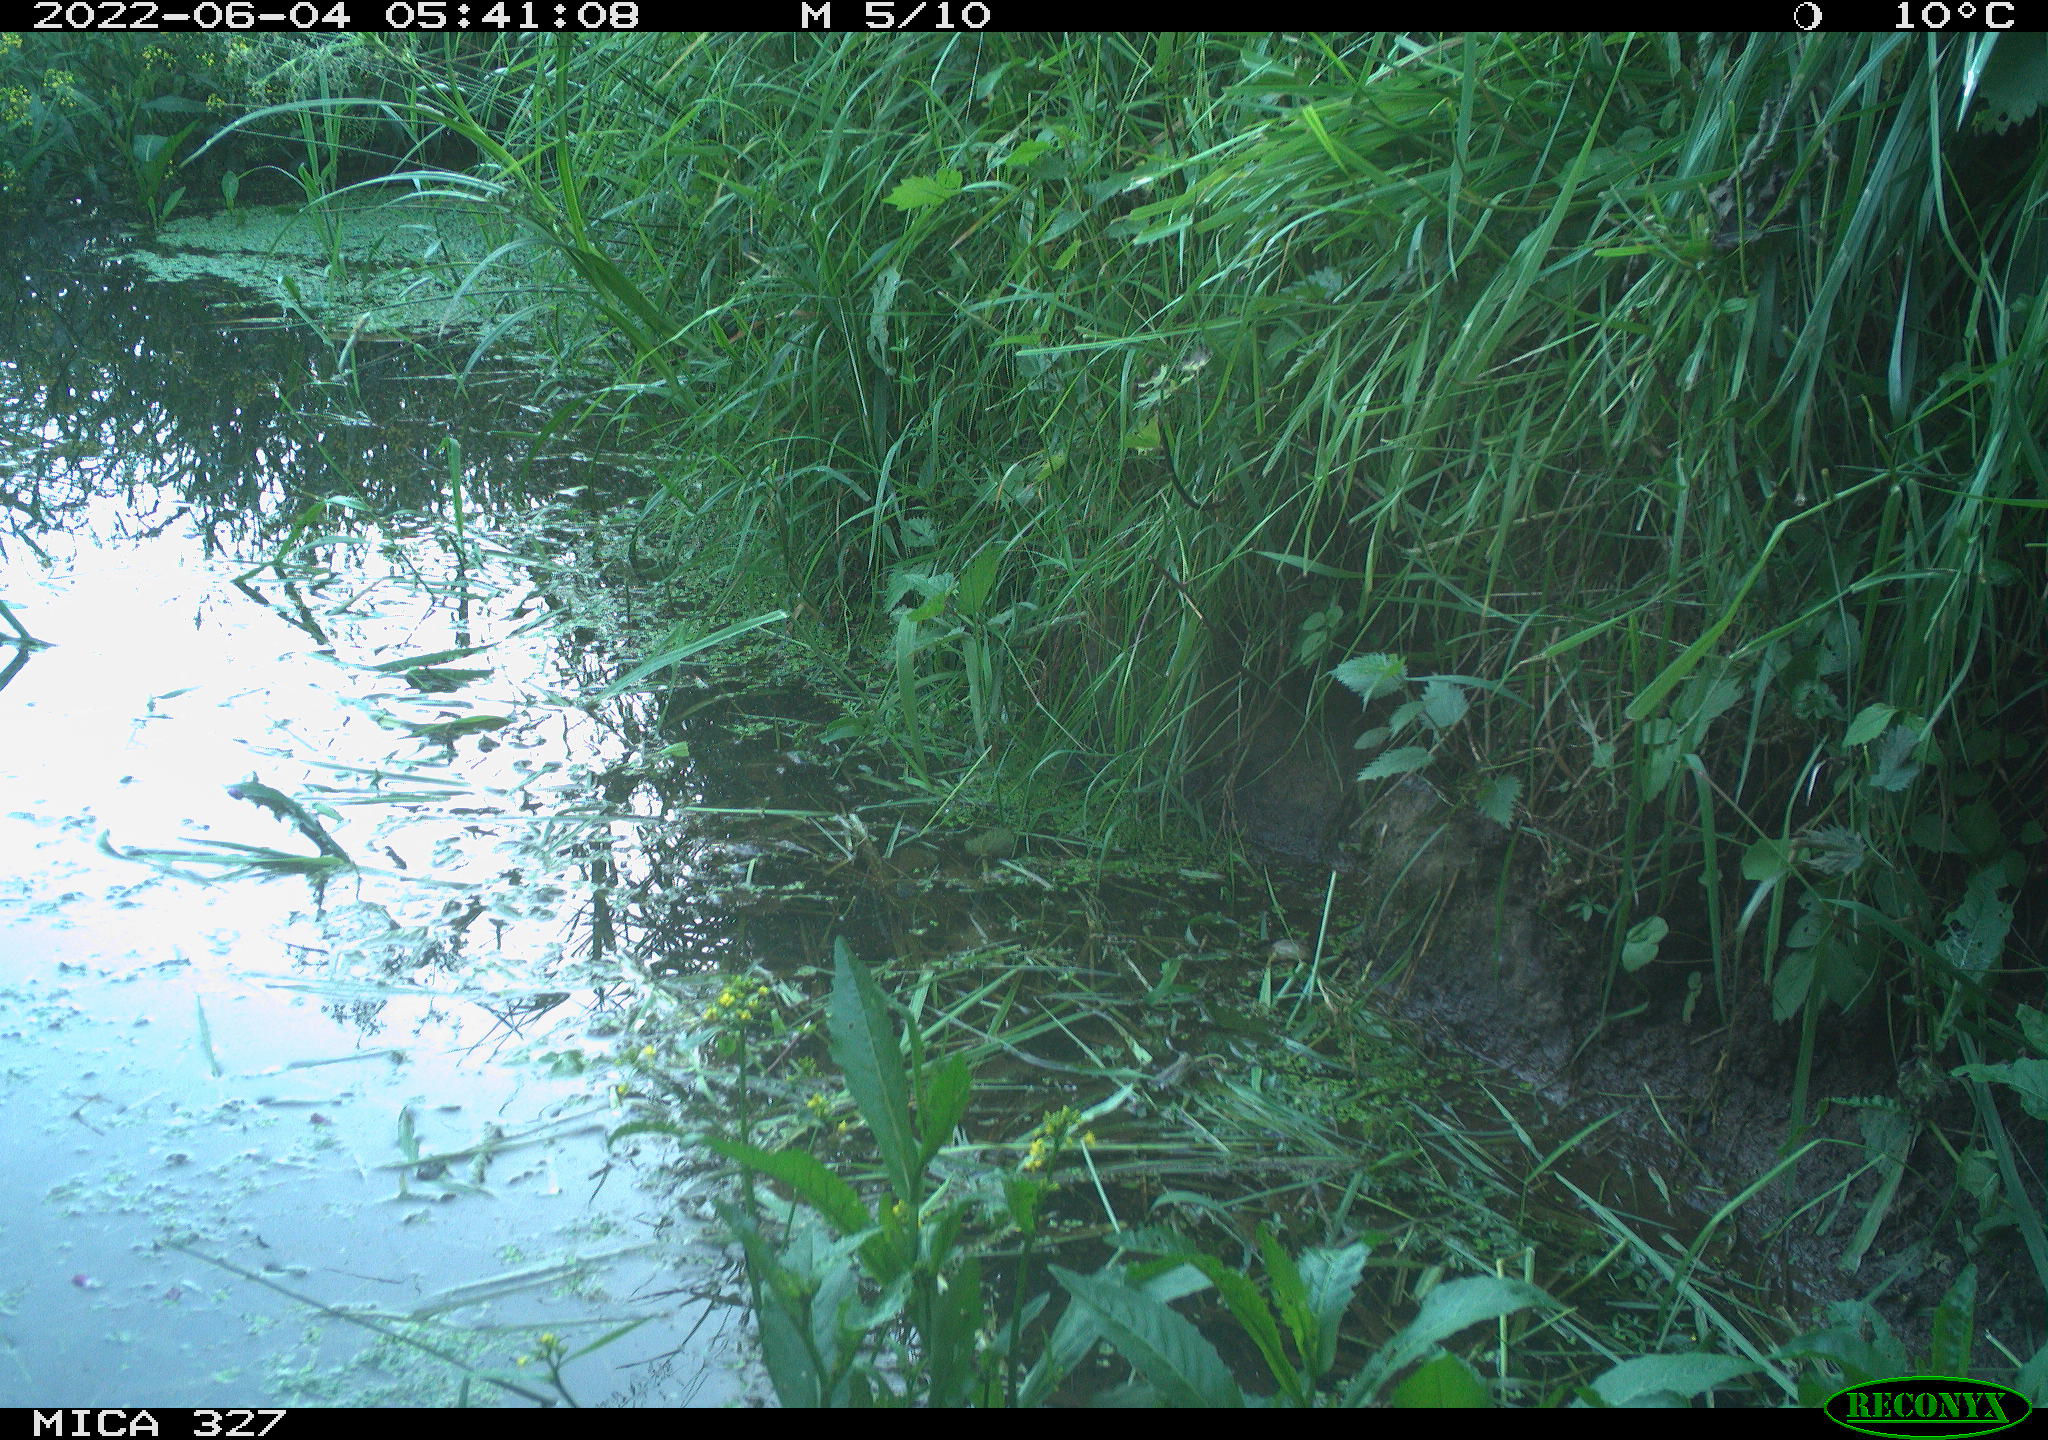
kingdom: Animalia
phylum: Chordata
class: Mammalia
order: Rodentia
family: Muridae
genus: Rattus
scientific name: Rattus norvegicus
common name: Brown rat
